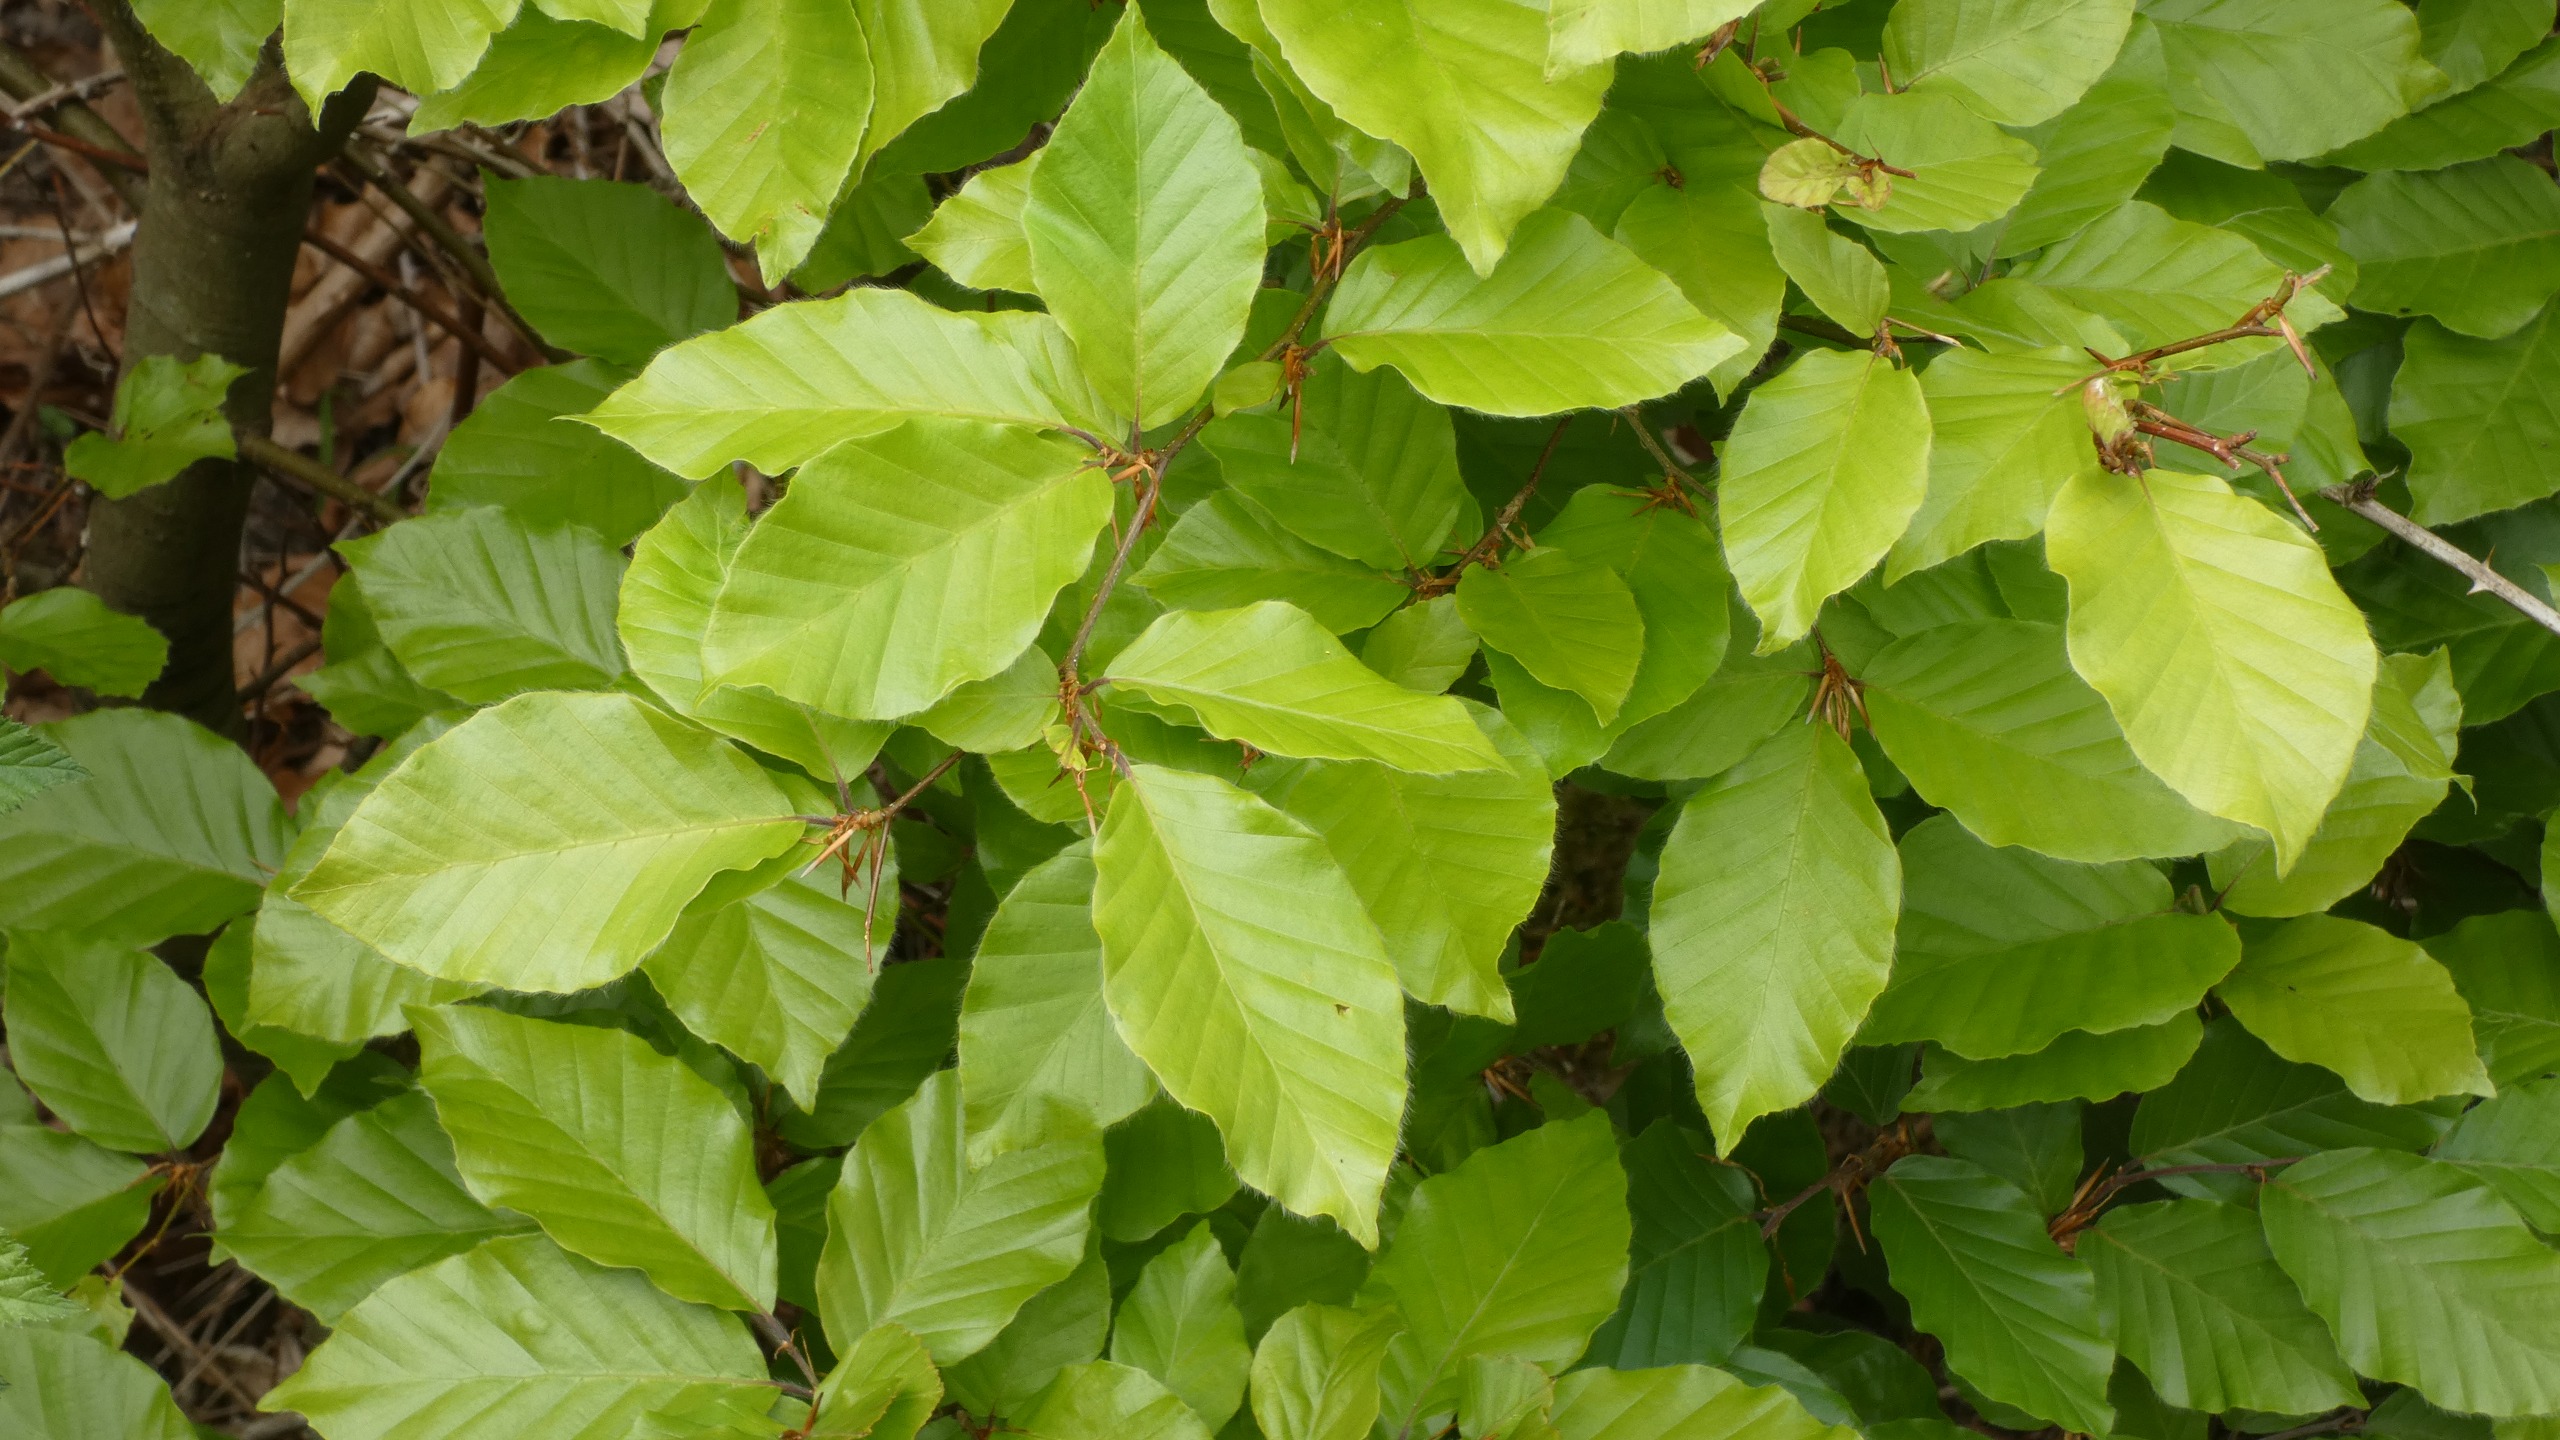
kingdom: Plantae
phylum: Tracheophyta
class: Magnoliopsida
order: Fagales
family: Fagaceae
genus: Fagus
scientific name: Fagus sylvatica
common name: Bøg
